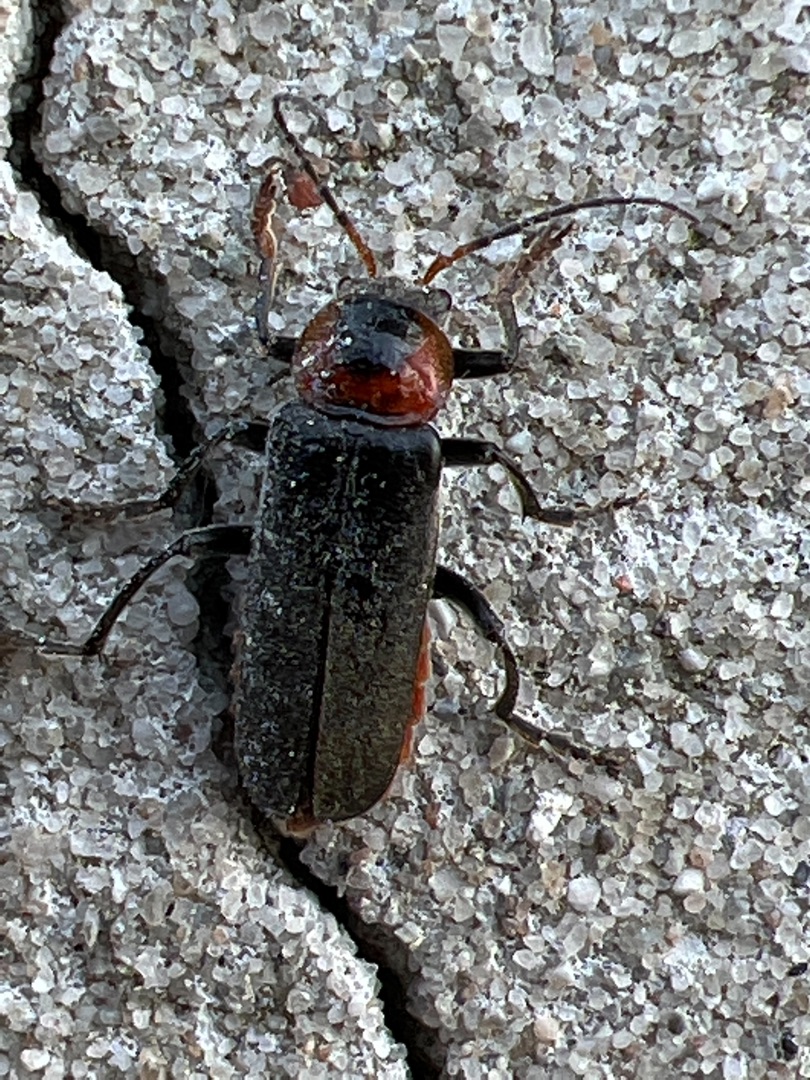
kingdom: Animalia
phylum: Arthropoda
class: Insecta
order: Coleoptera
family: Cantharidae
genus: Cantharis
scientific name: Cantharis fusca
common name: Stor blødvinge
